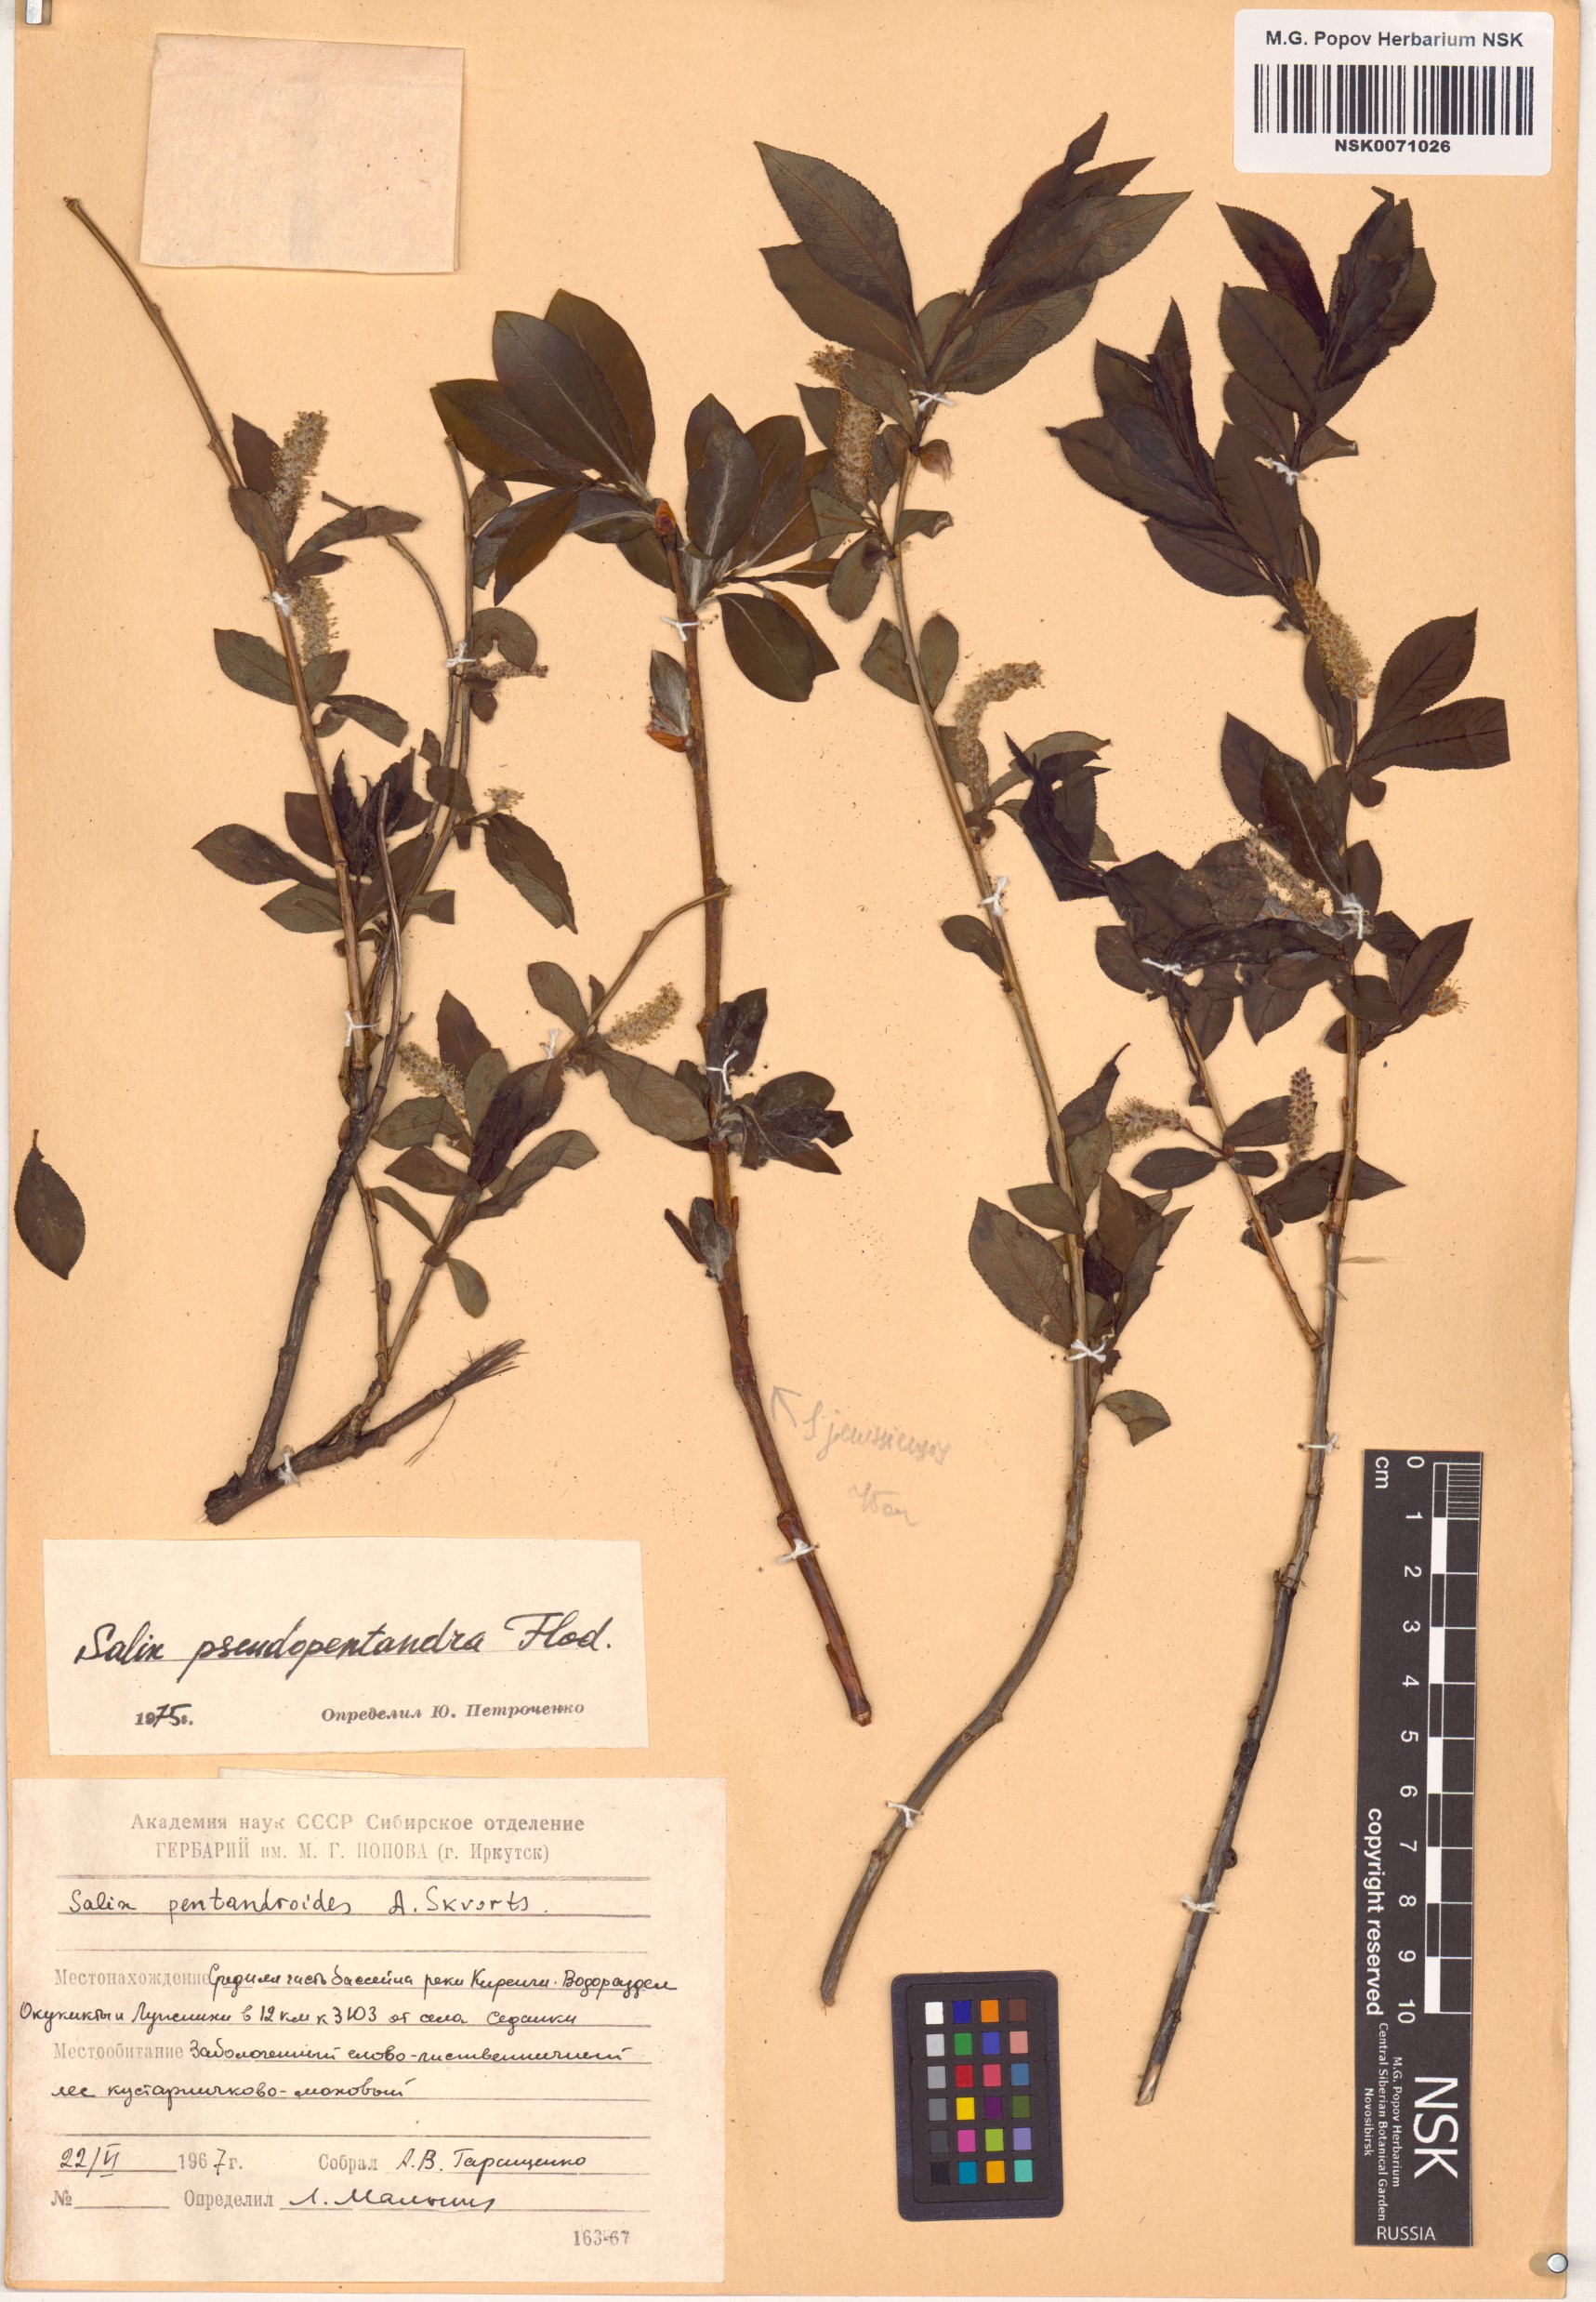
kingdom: Plantae
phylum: Tracheophyta
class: Magnoliopsida
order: Malpighiales
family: Salicaceae
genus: Salix
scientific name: Salix pseudopentandra
